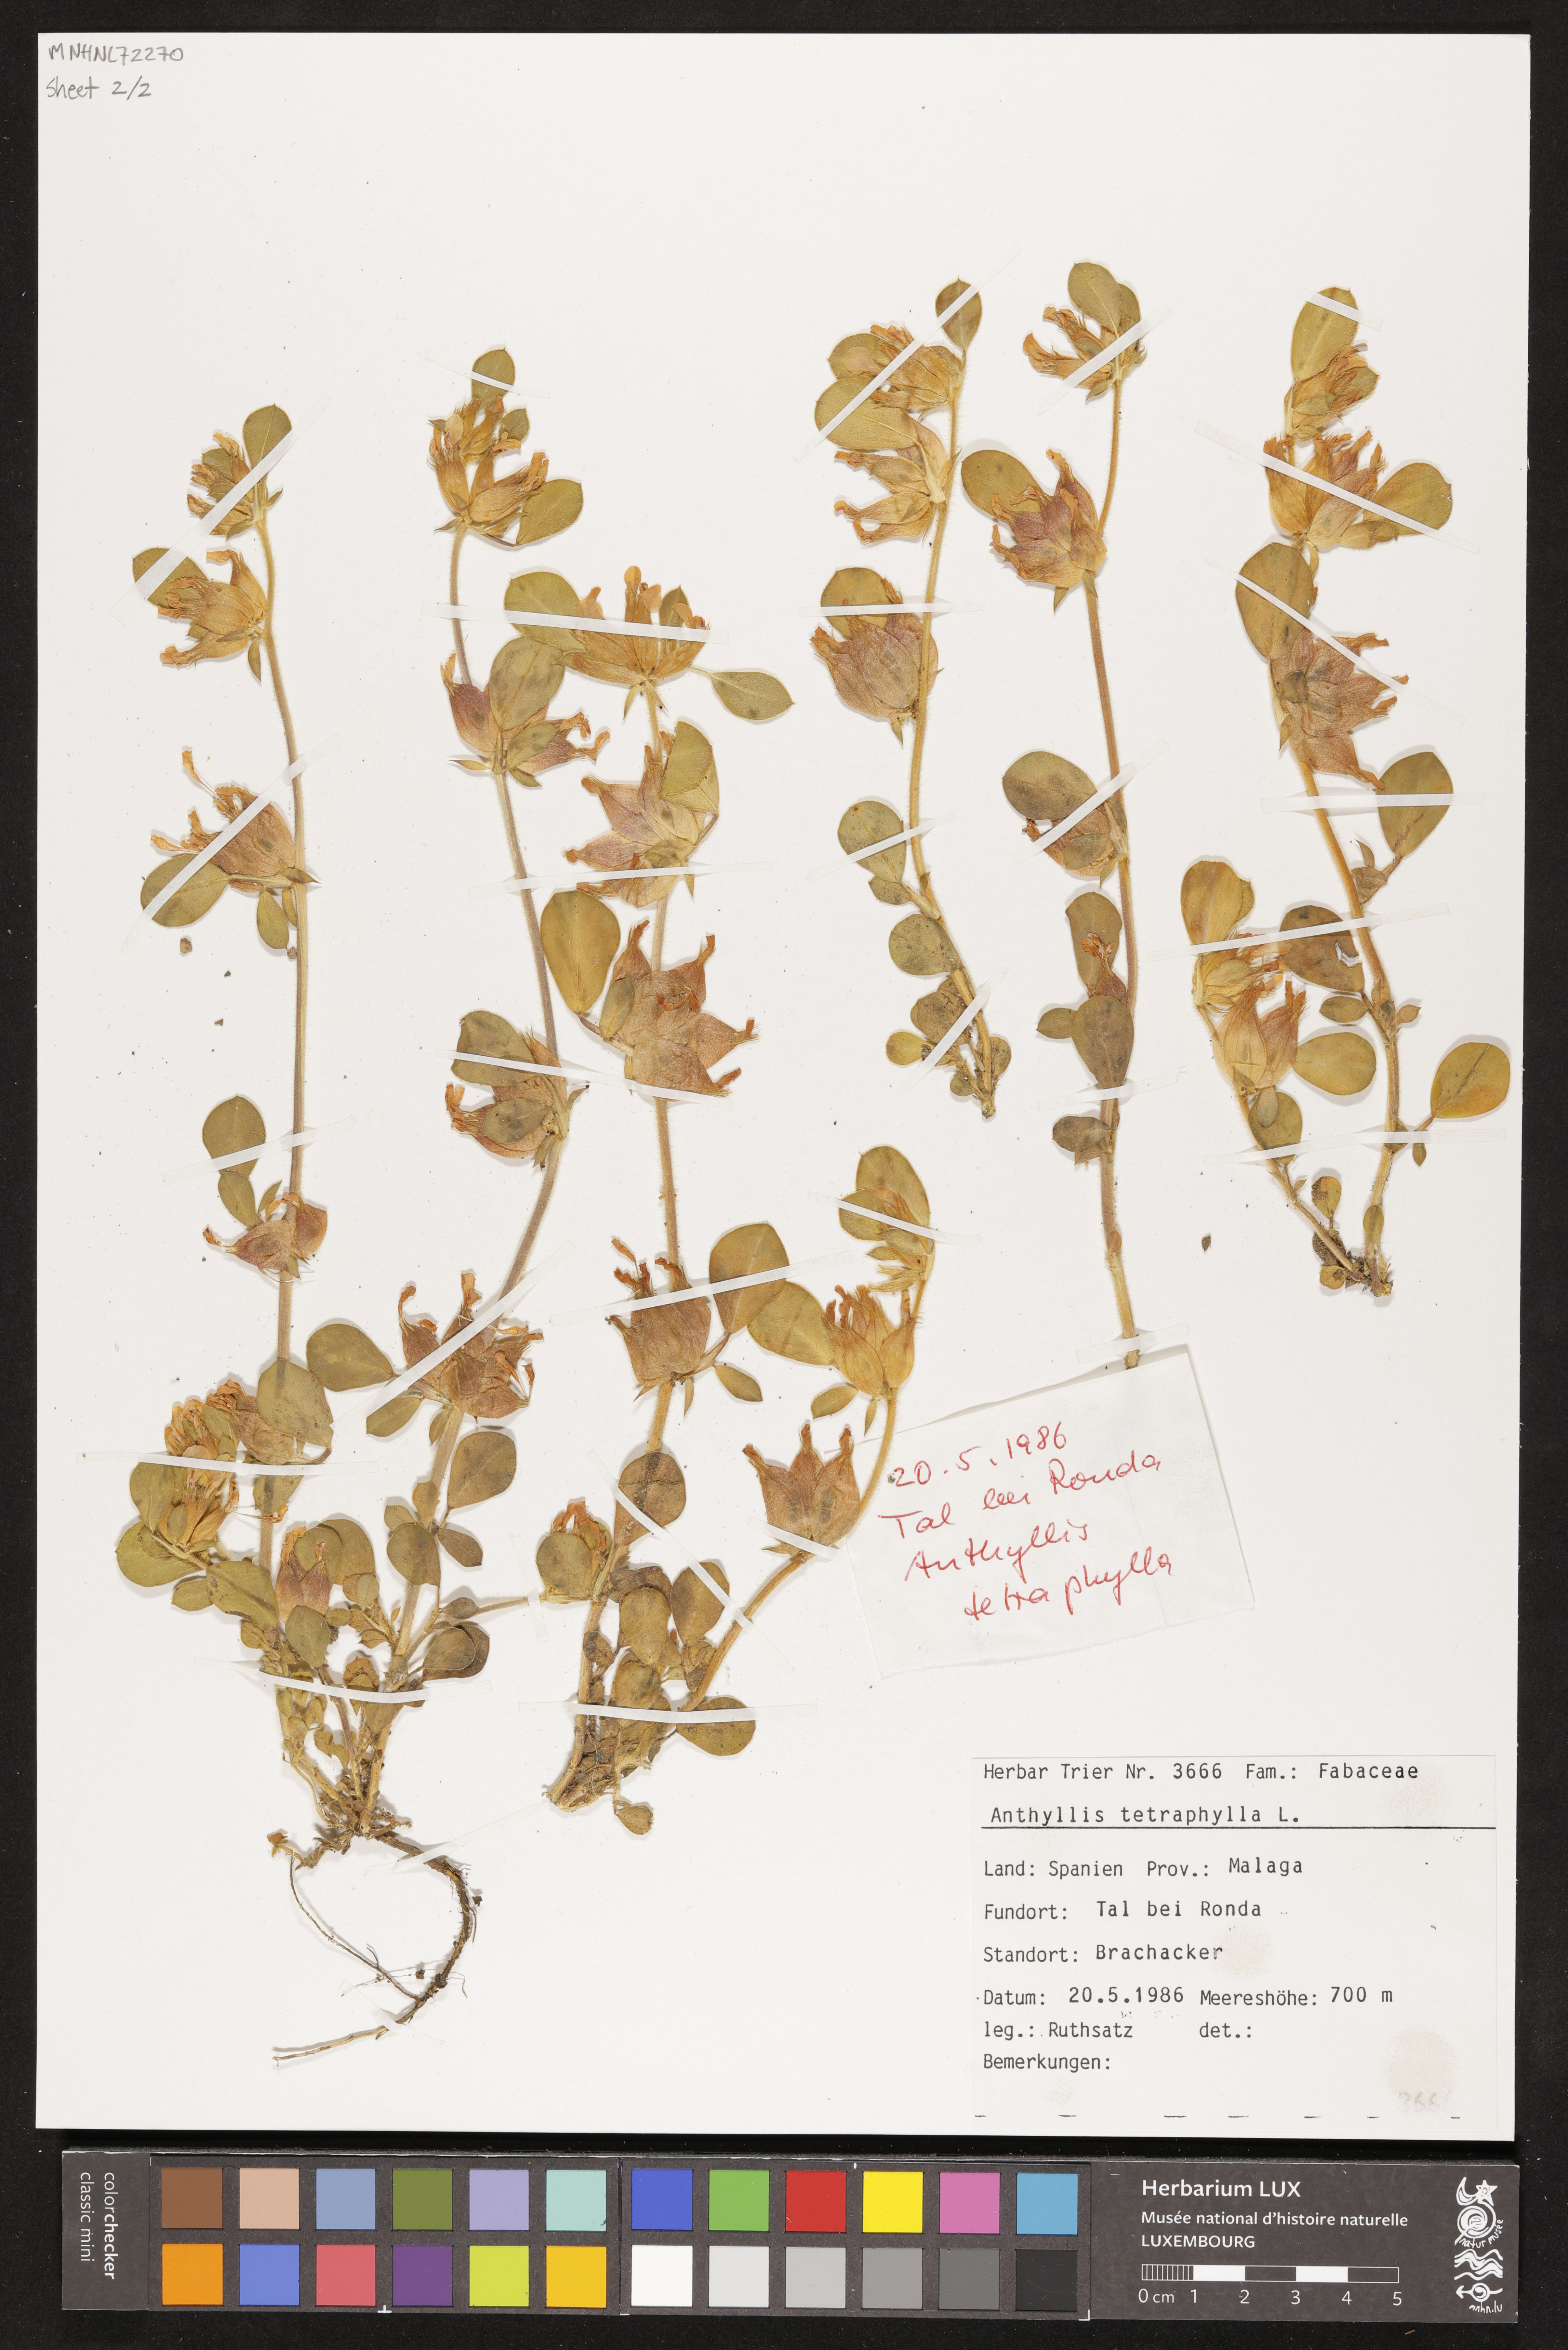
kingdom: Plantae
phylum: Tracheophyta
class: Magnoliopsida
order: Fabales
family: Fabaceae
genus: Tripodion
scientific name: Tripodion tetraphyllum
